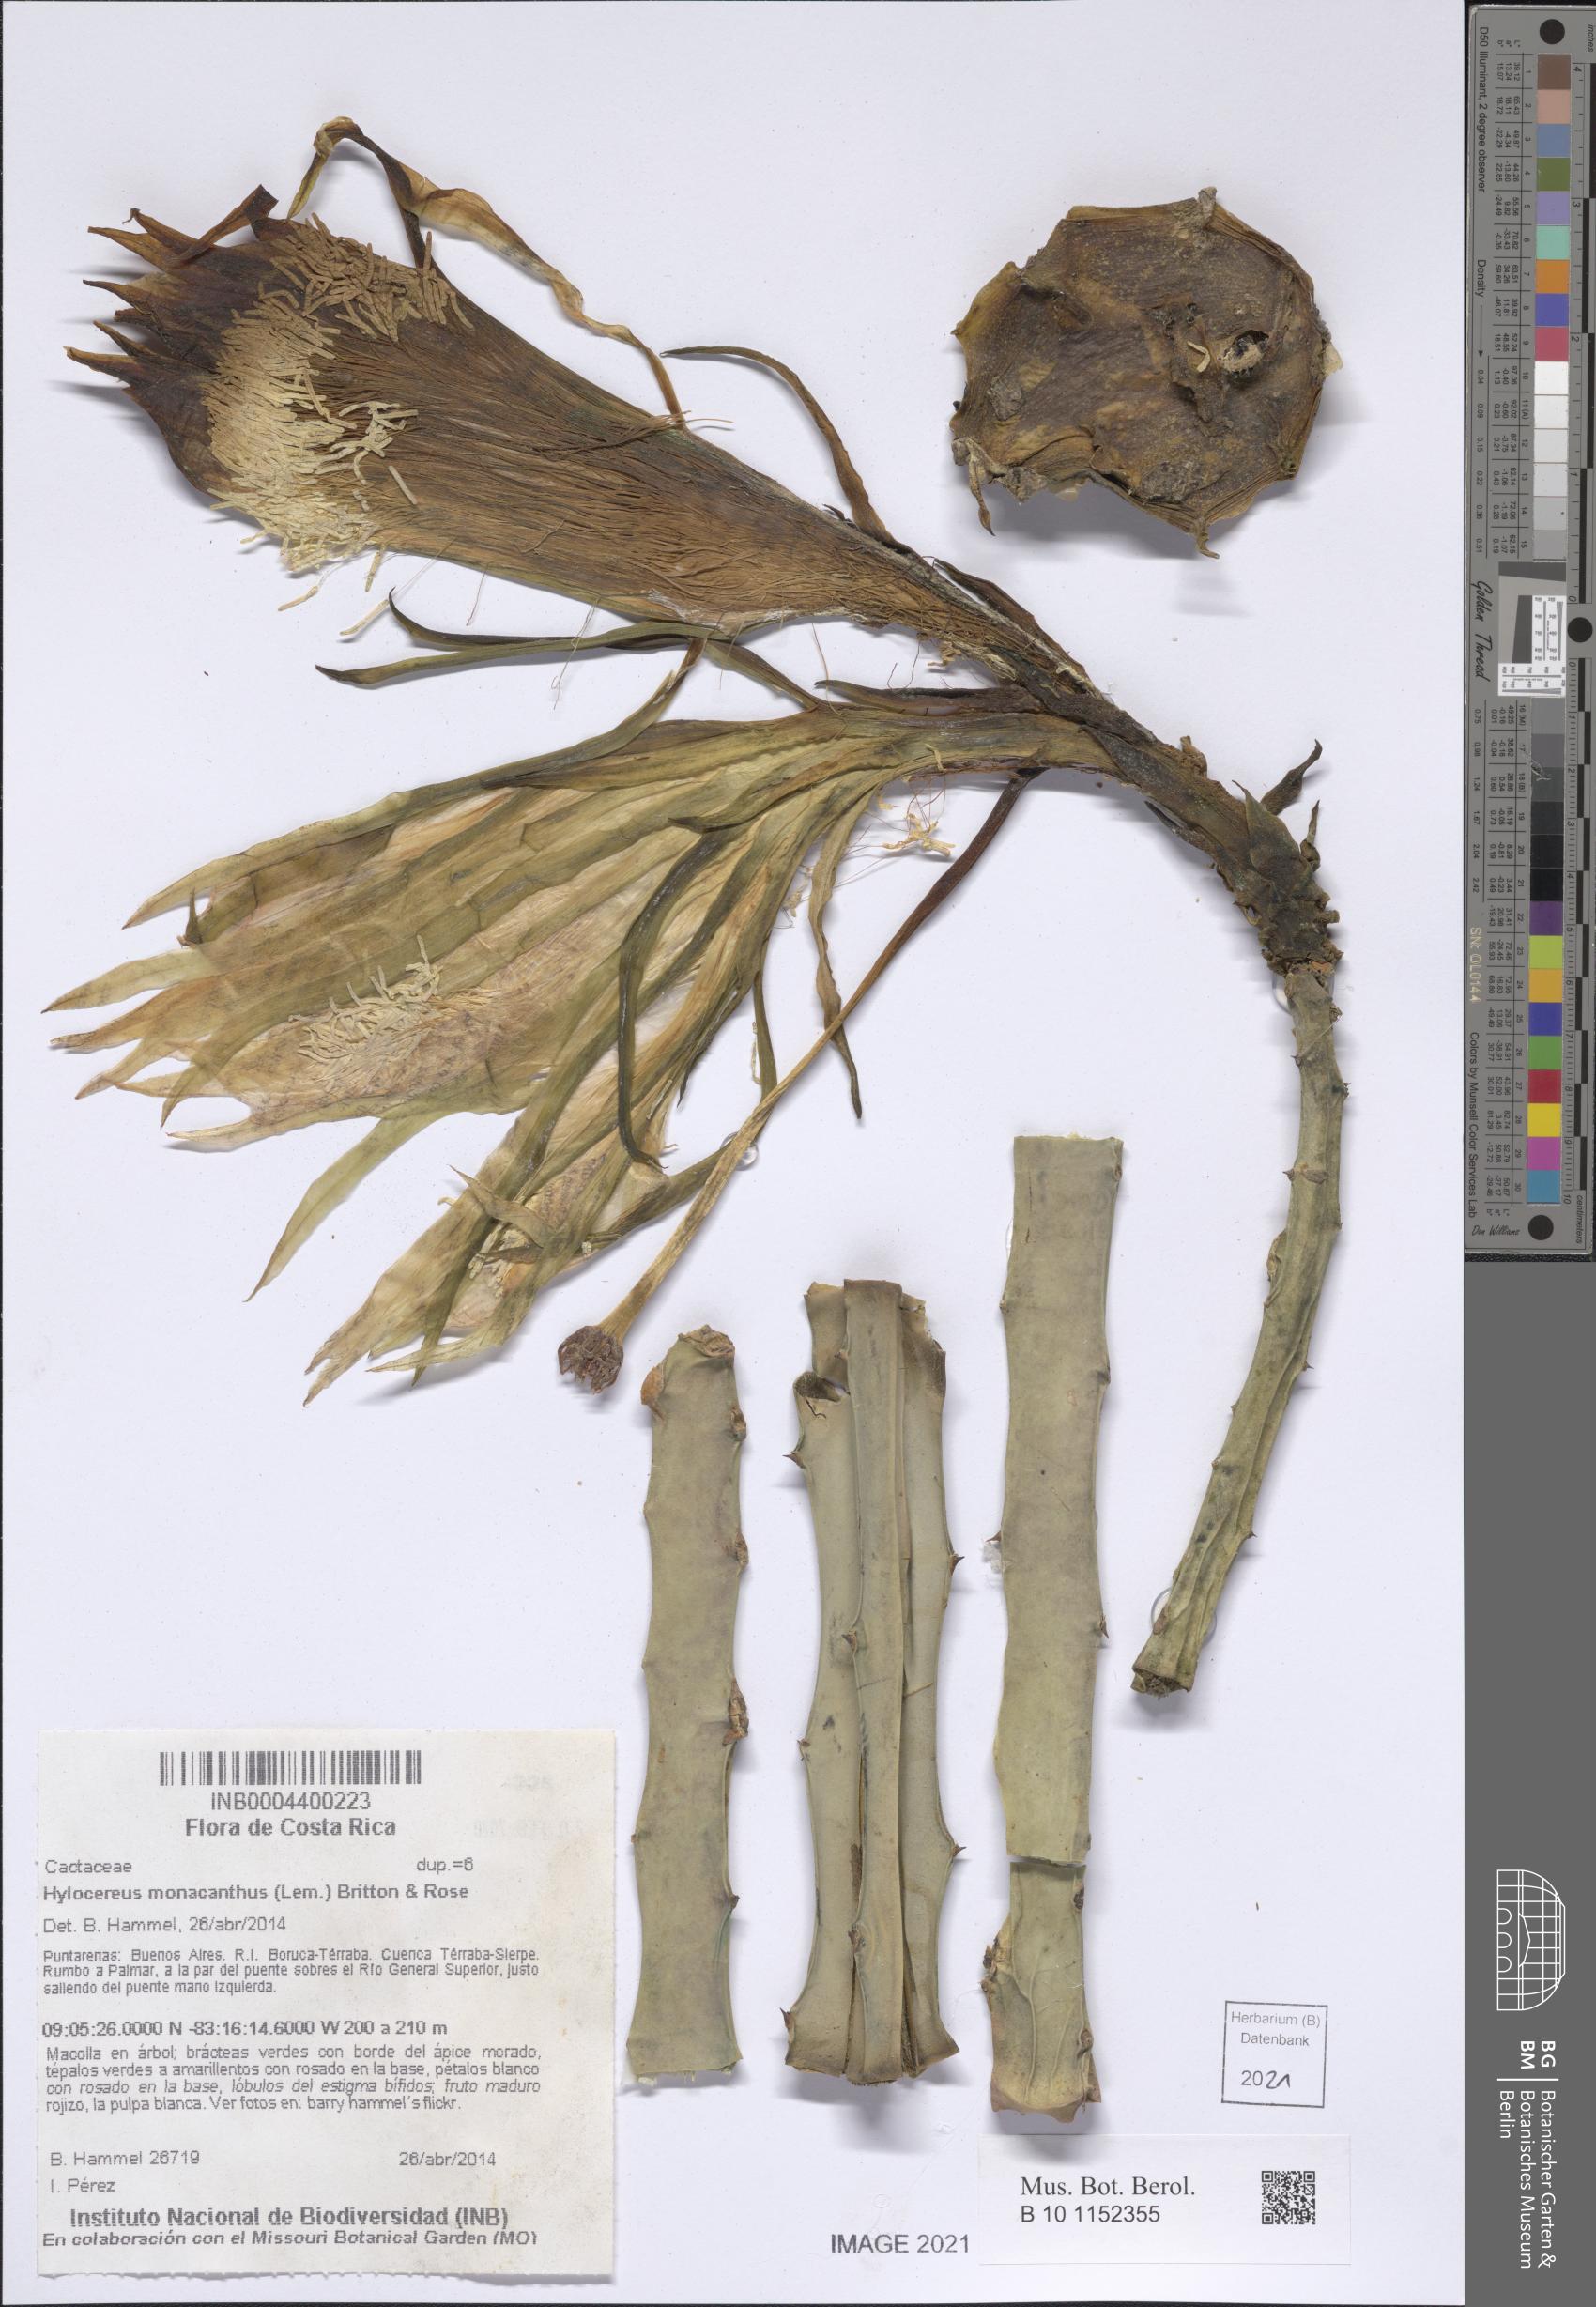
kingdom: Plantae
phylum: Tracheophyta
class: Magnoliopsida
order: Caryophyllales
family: Cactaceae
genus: Selenicereus
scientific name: Selenicereus monacanthus
